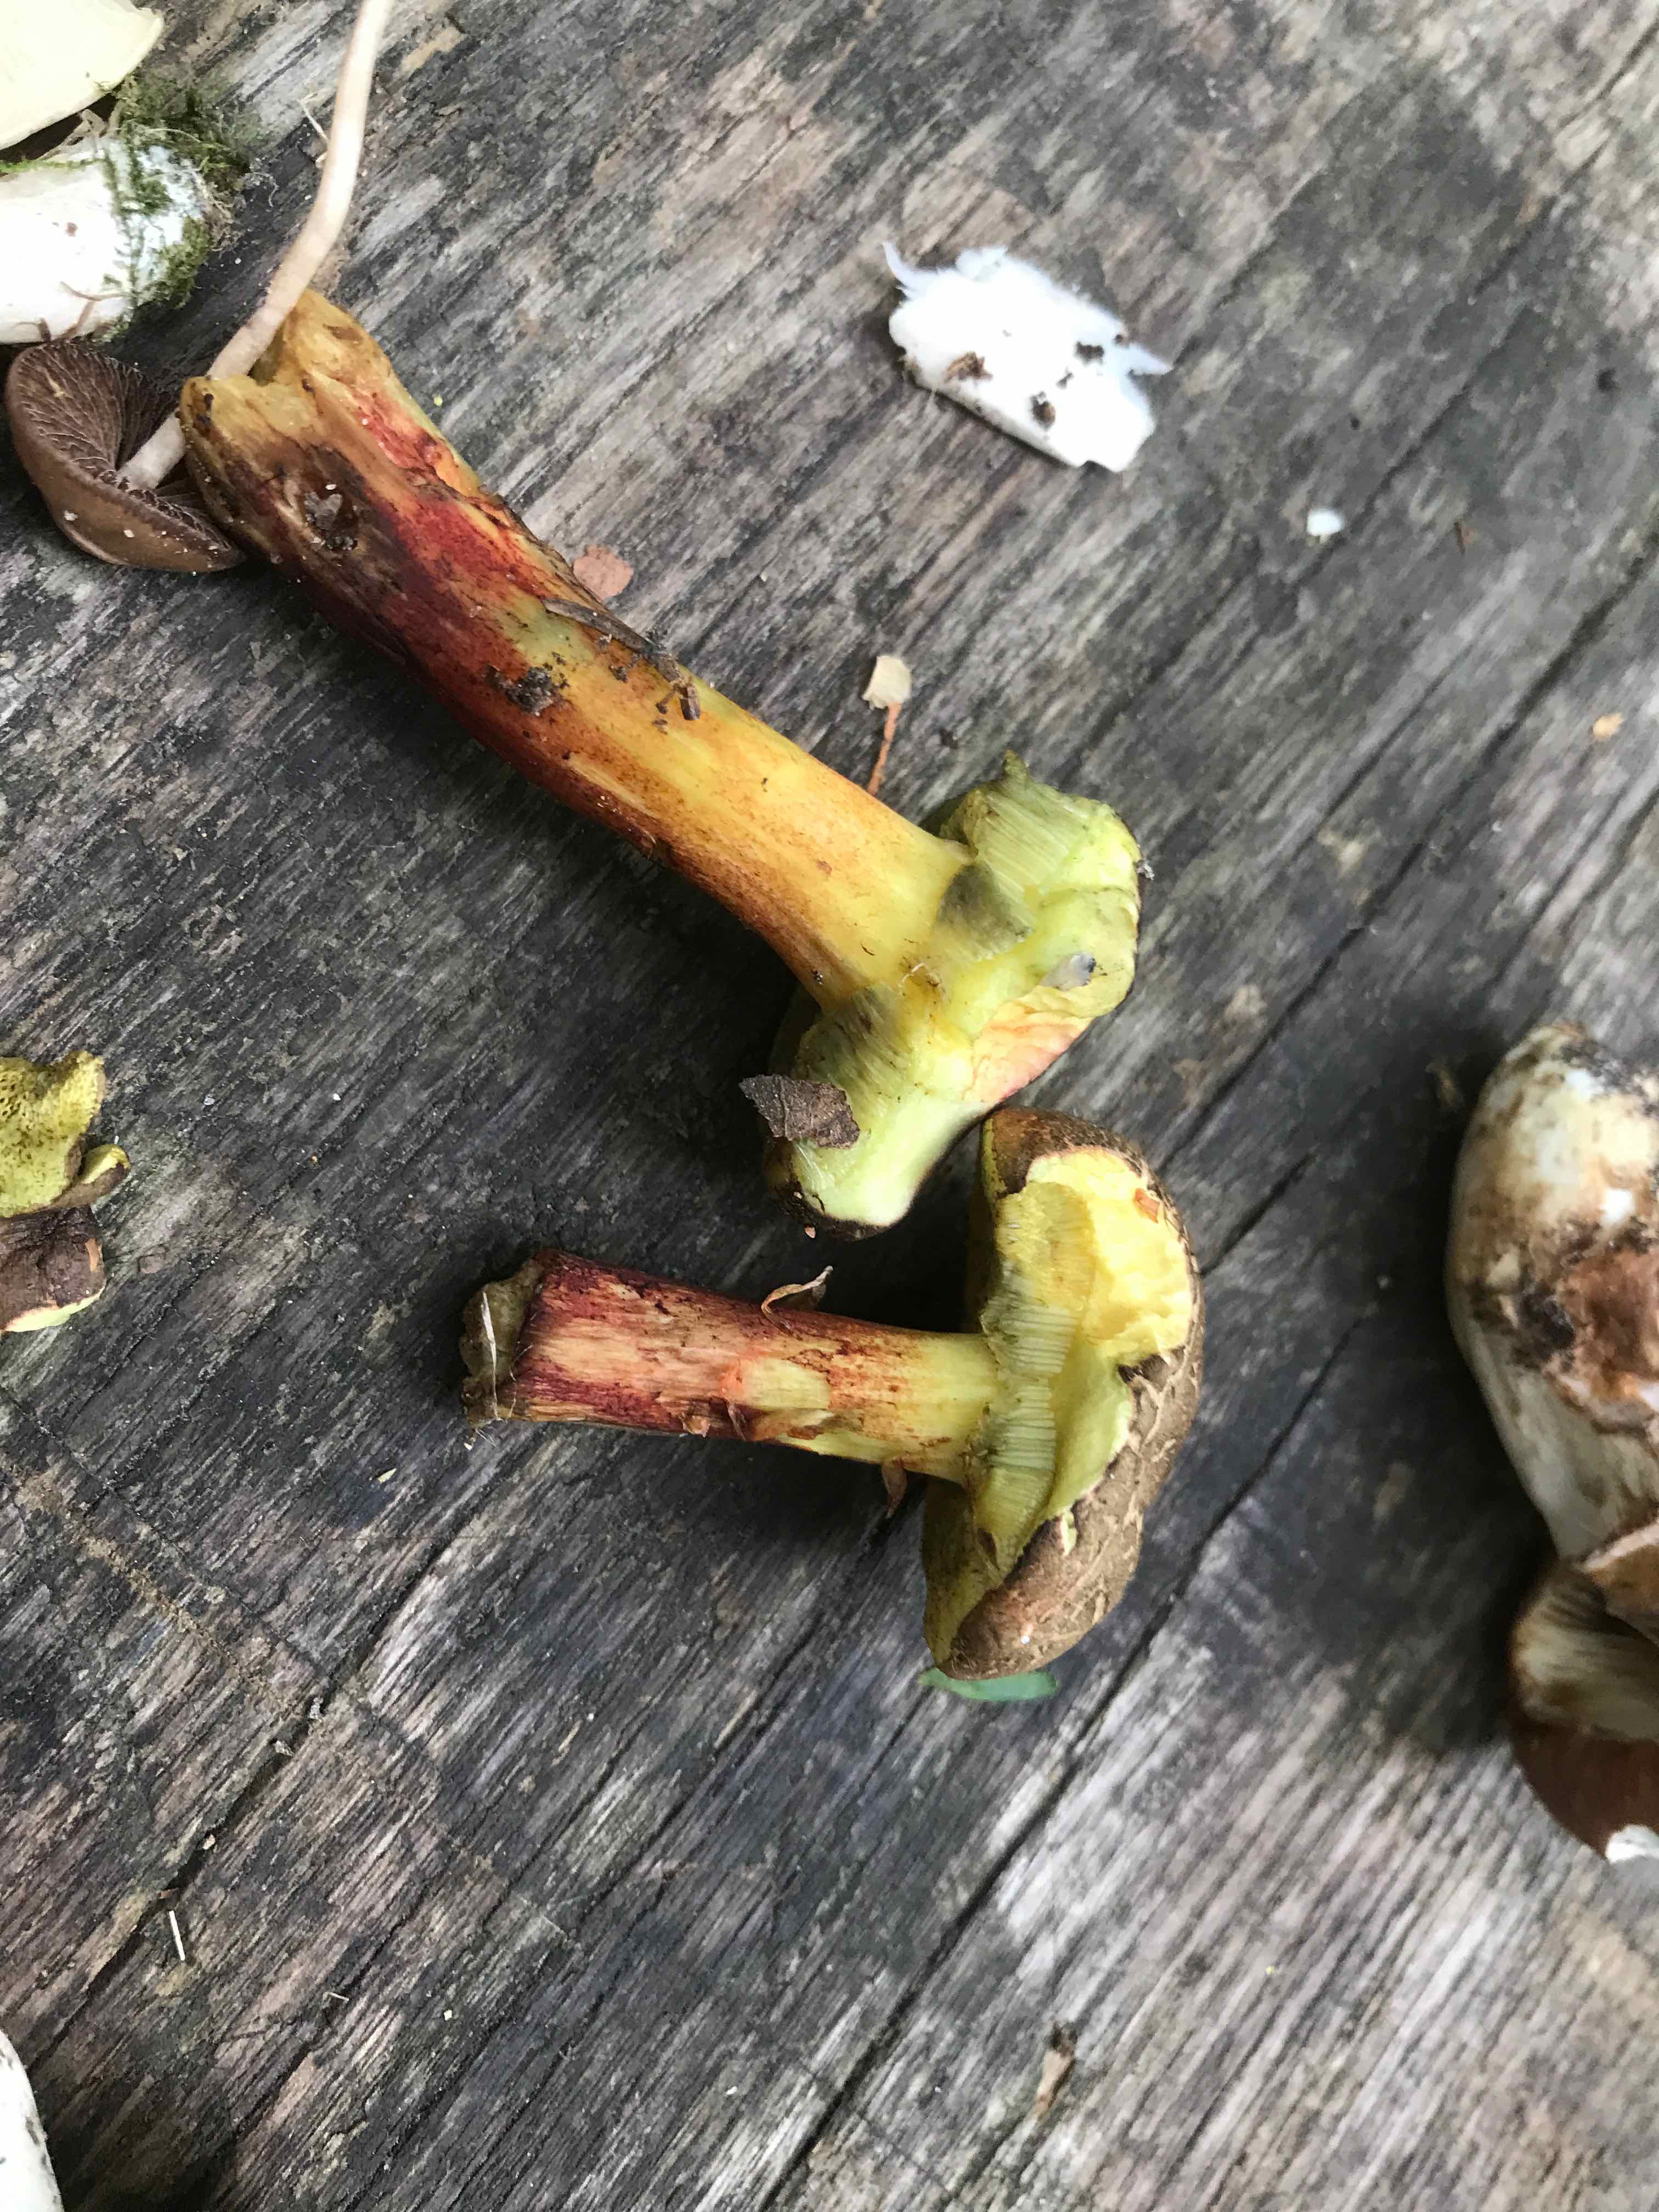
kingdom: Fungi
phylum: Basidiomycota
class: Agaricomycetes
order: Boletales
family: Boletaceae
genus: Xerocomellus
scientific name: Xerocomellus cisalpinus
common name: finsprukken rørhat
